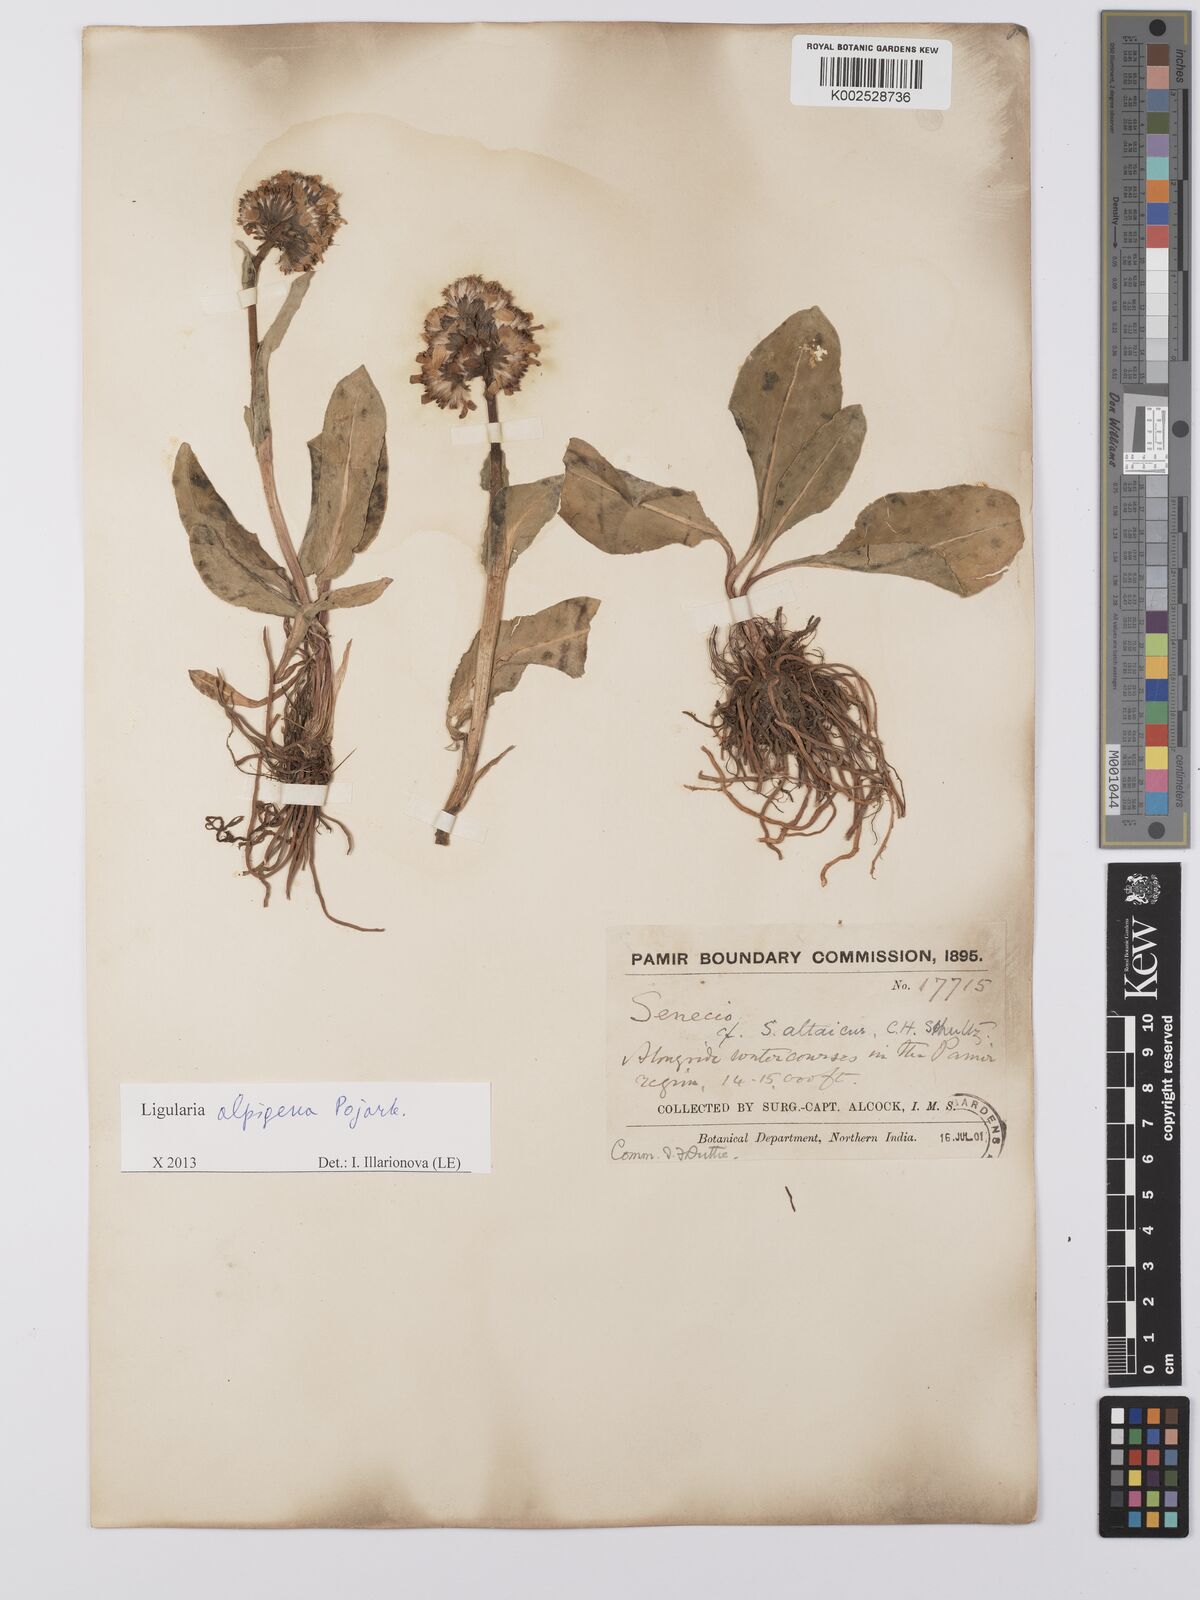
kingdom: Plantae
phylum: Tracheophyta
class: Magnoliopsida
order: Asterales
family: Asteraceae
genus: Ligularia
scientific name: Ligularia alpigena
